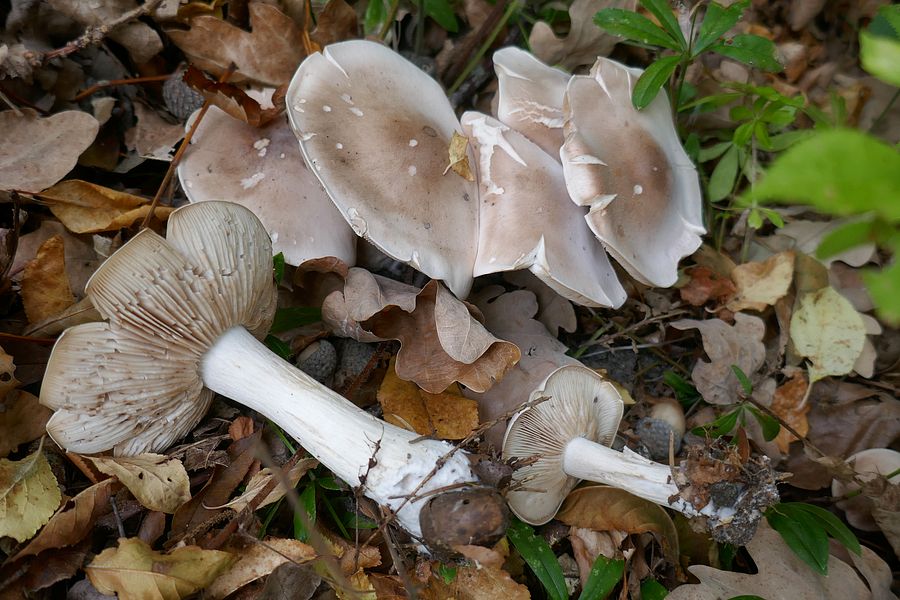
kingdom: Fungi
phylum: Basidiomycota
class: Agaricomycetes
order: Agaricales
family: Tricholomataceae
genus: Lepista
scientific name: Lepista irina
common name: violduftende hekseringshat
